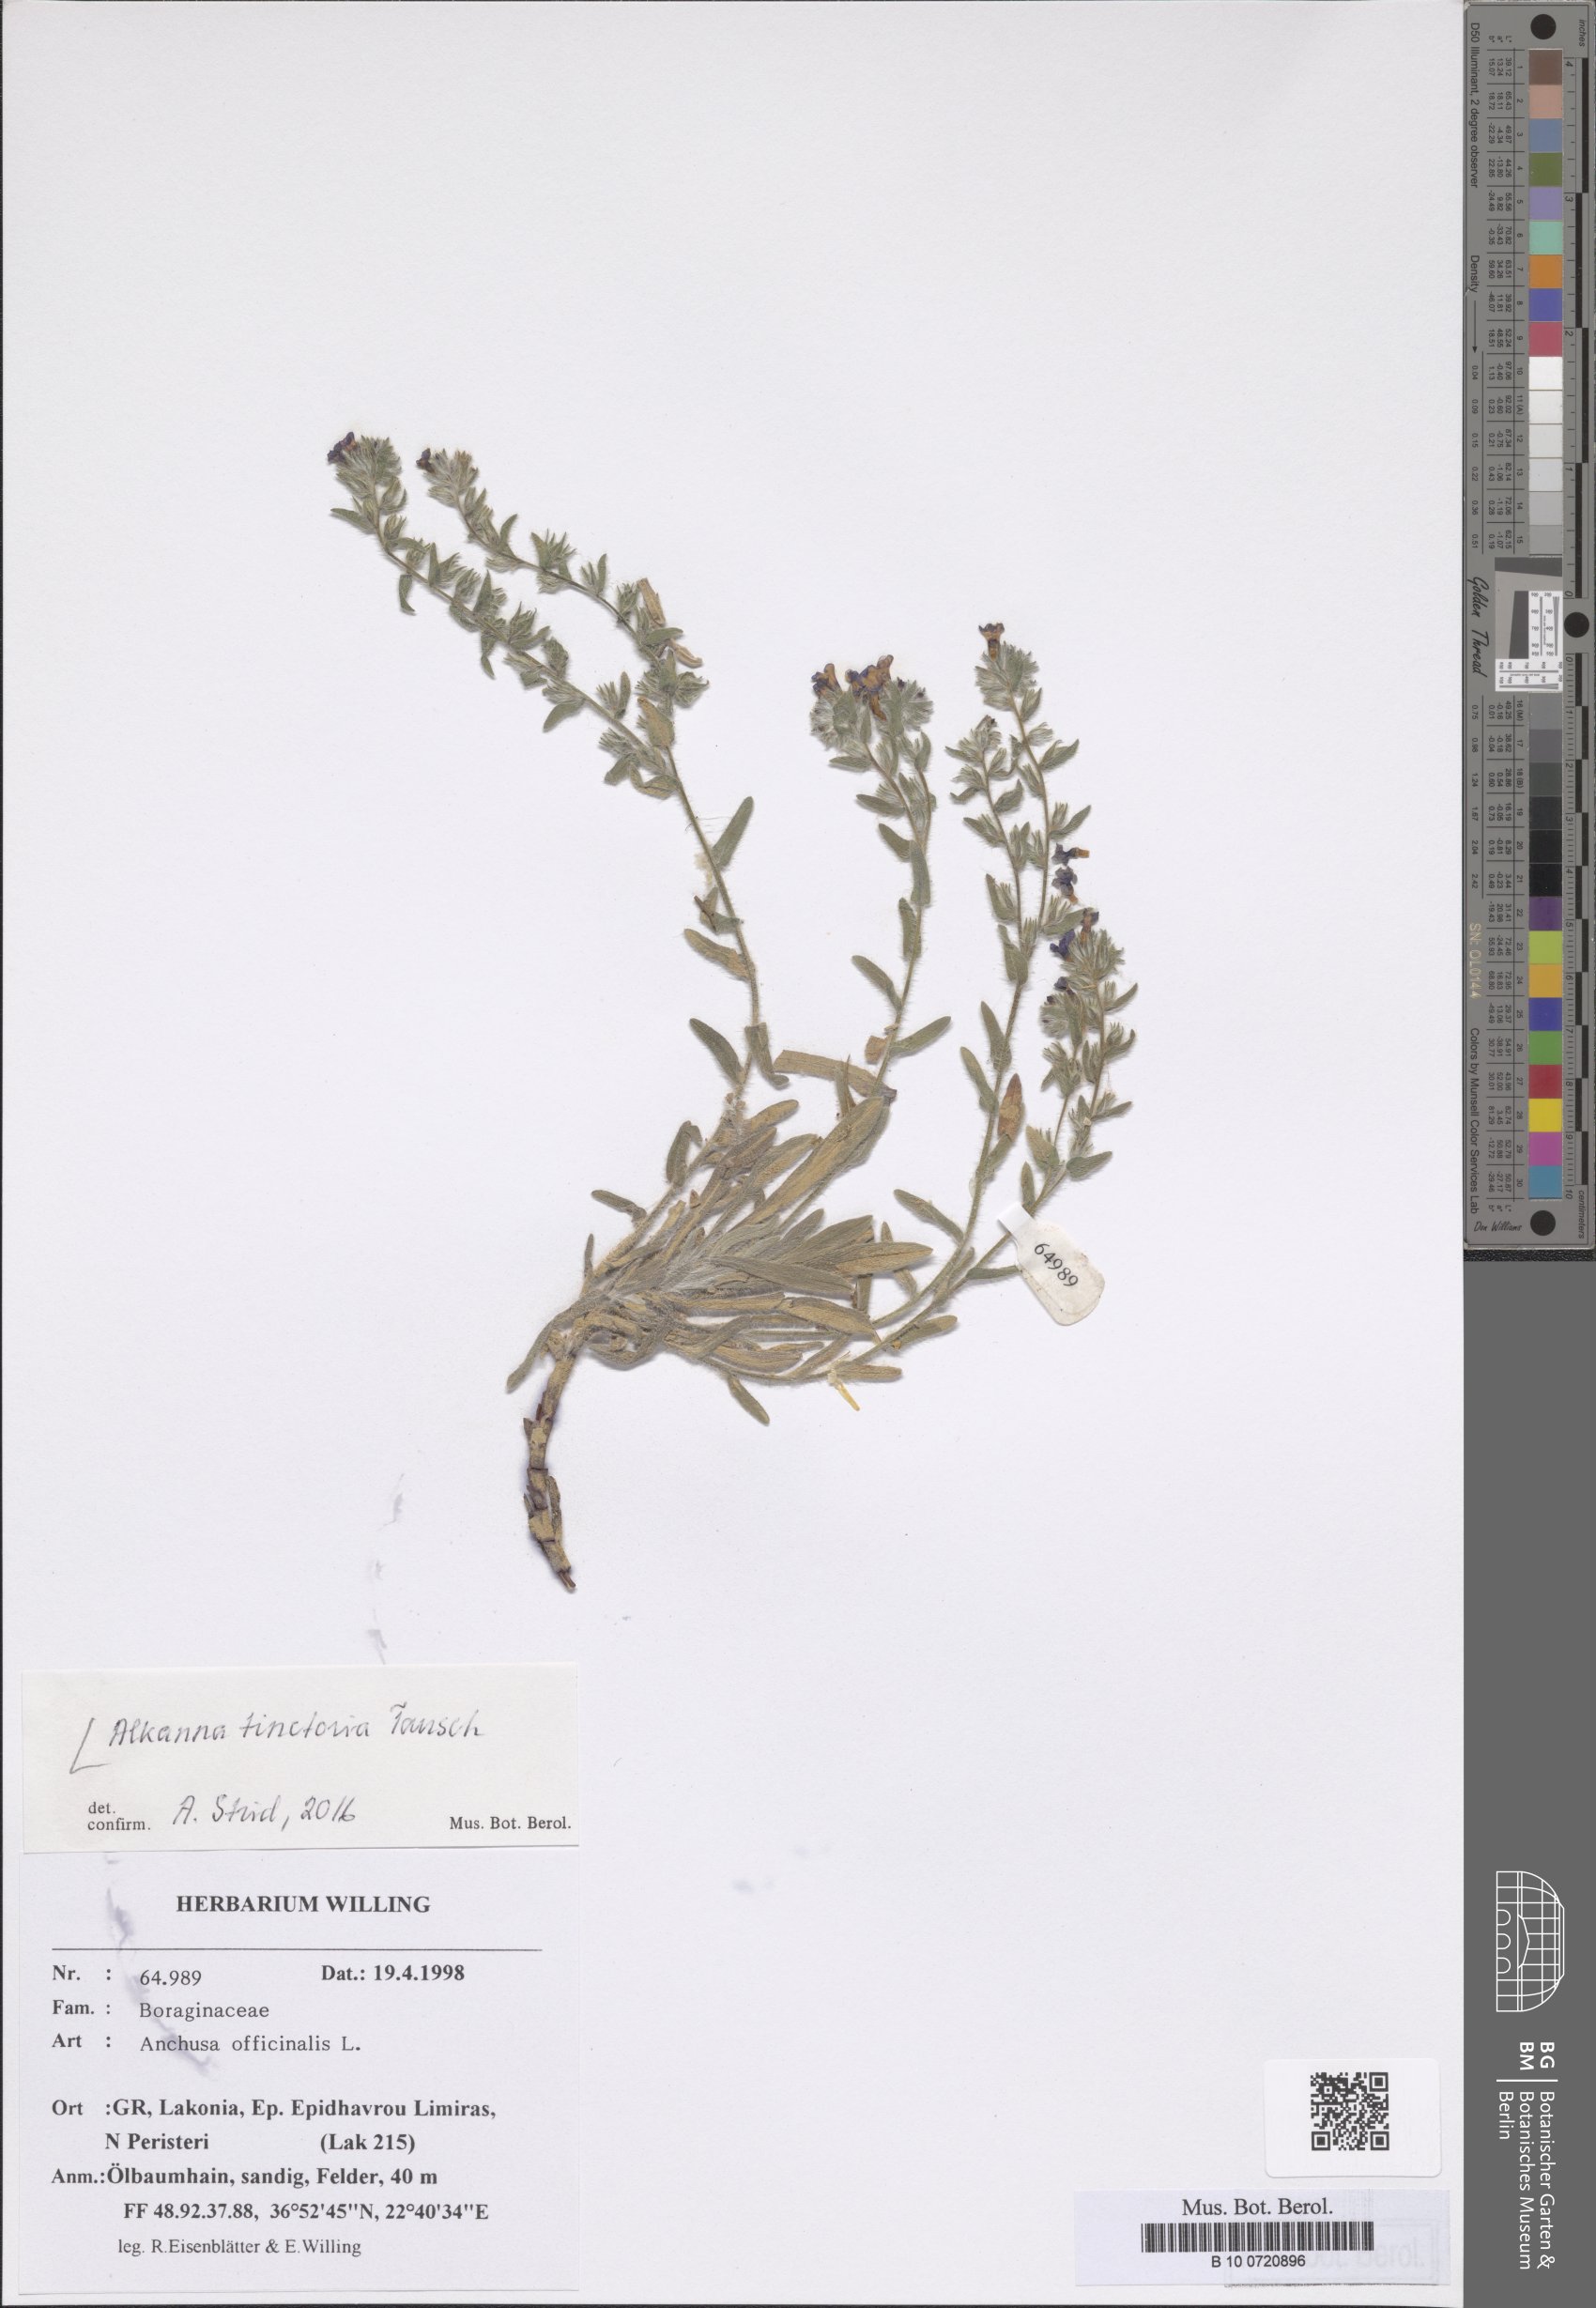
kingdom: Plantae
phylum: Tracheophyta
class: Magnoliopsida
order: Boraginales
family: Boraginaceae
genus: Alkanna
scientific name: Alkanna tinctoria
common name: Dyer's-alkanet
